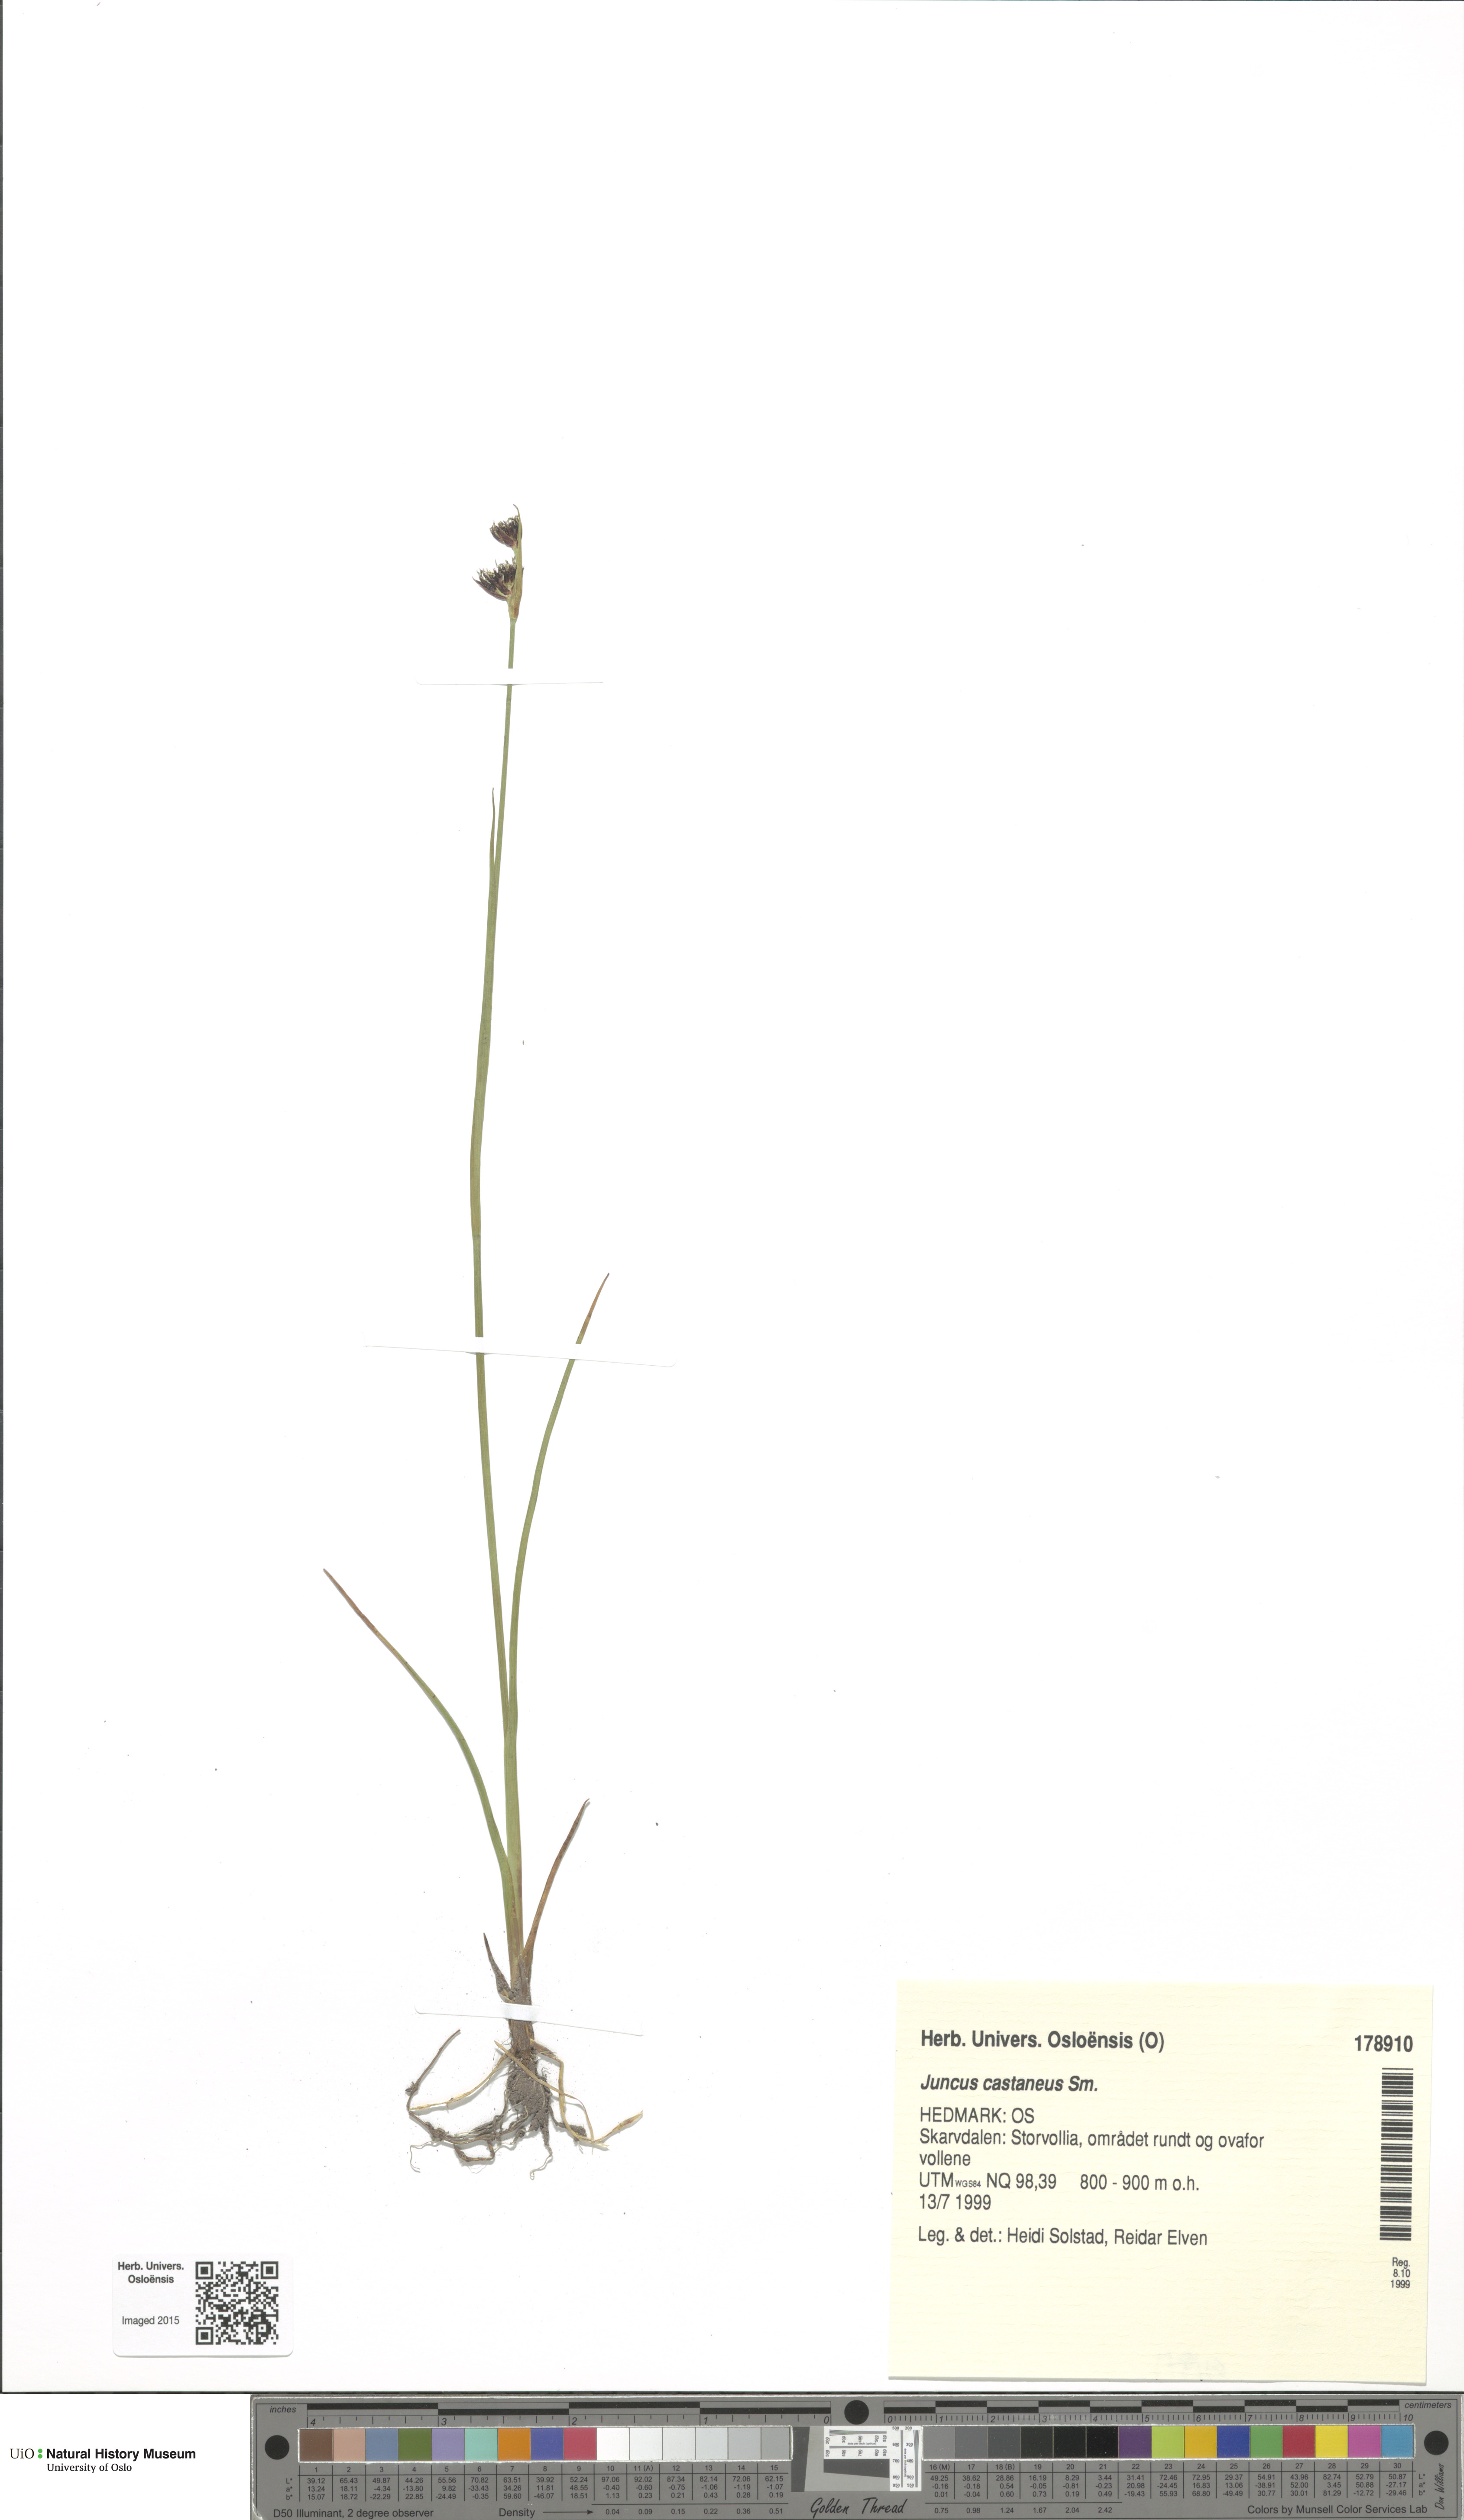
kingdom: Plantae
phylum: Tracheophyta
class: Liliopsida
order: Poales
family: Juncaceae
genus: Juncus
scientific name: Juncus castaneus
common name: Chestnut rush
